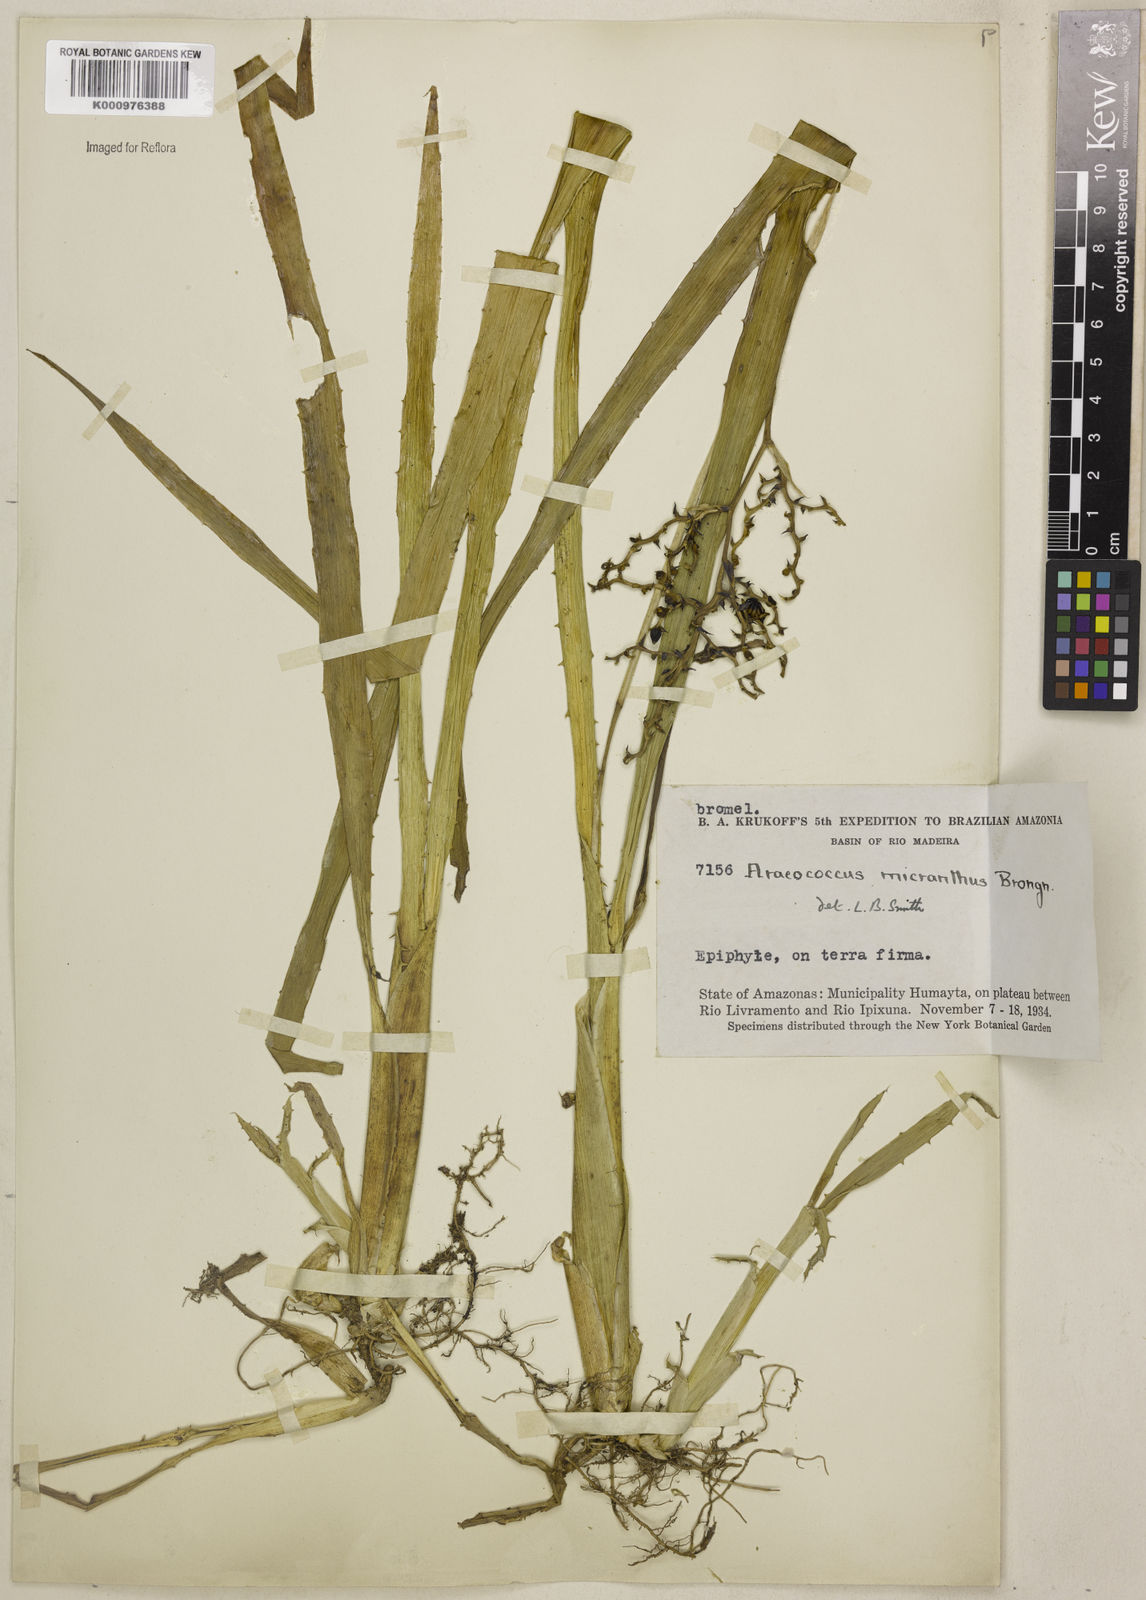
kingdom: Plantae
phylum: Tracheophyta
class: Liliopsida
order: Poales
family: Bromeliaceae
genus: Araeococcus
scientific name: Araeococcus micranthus
